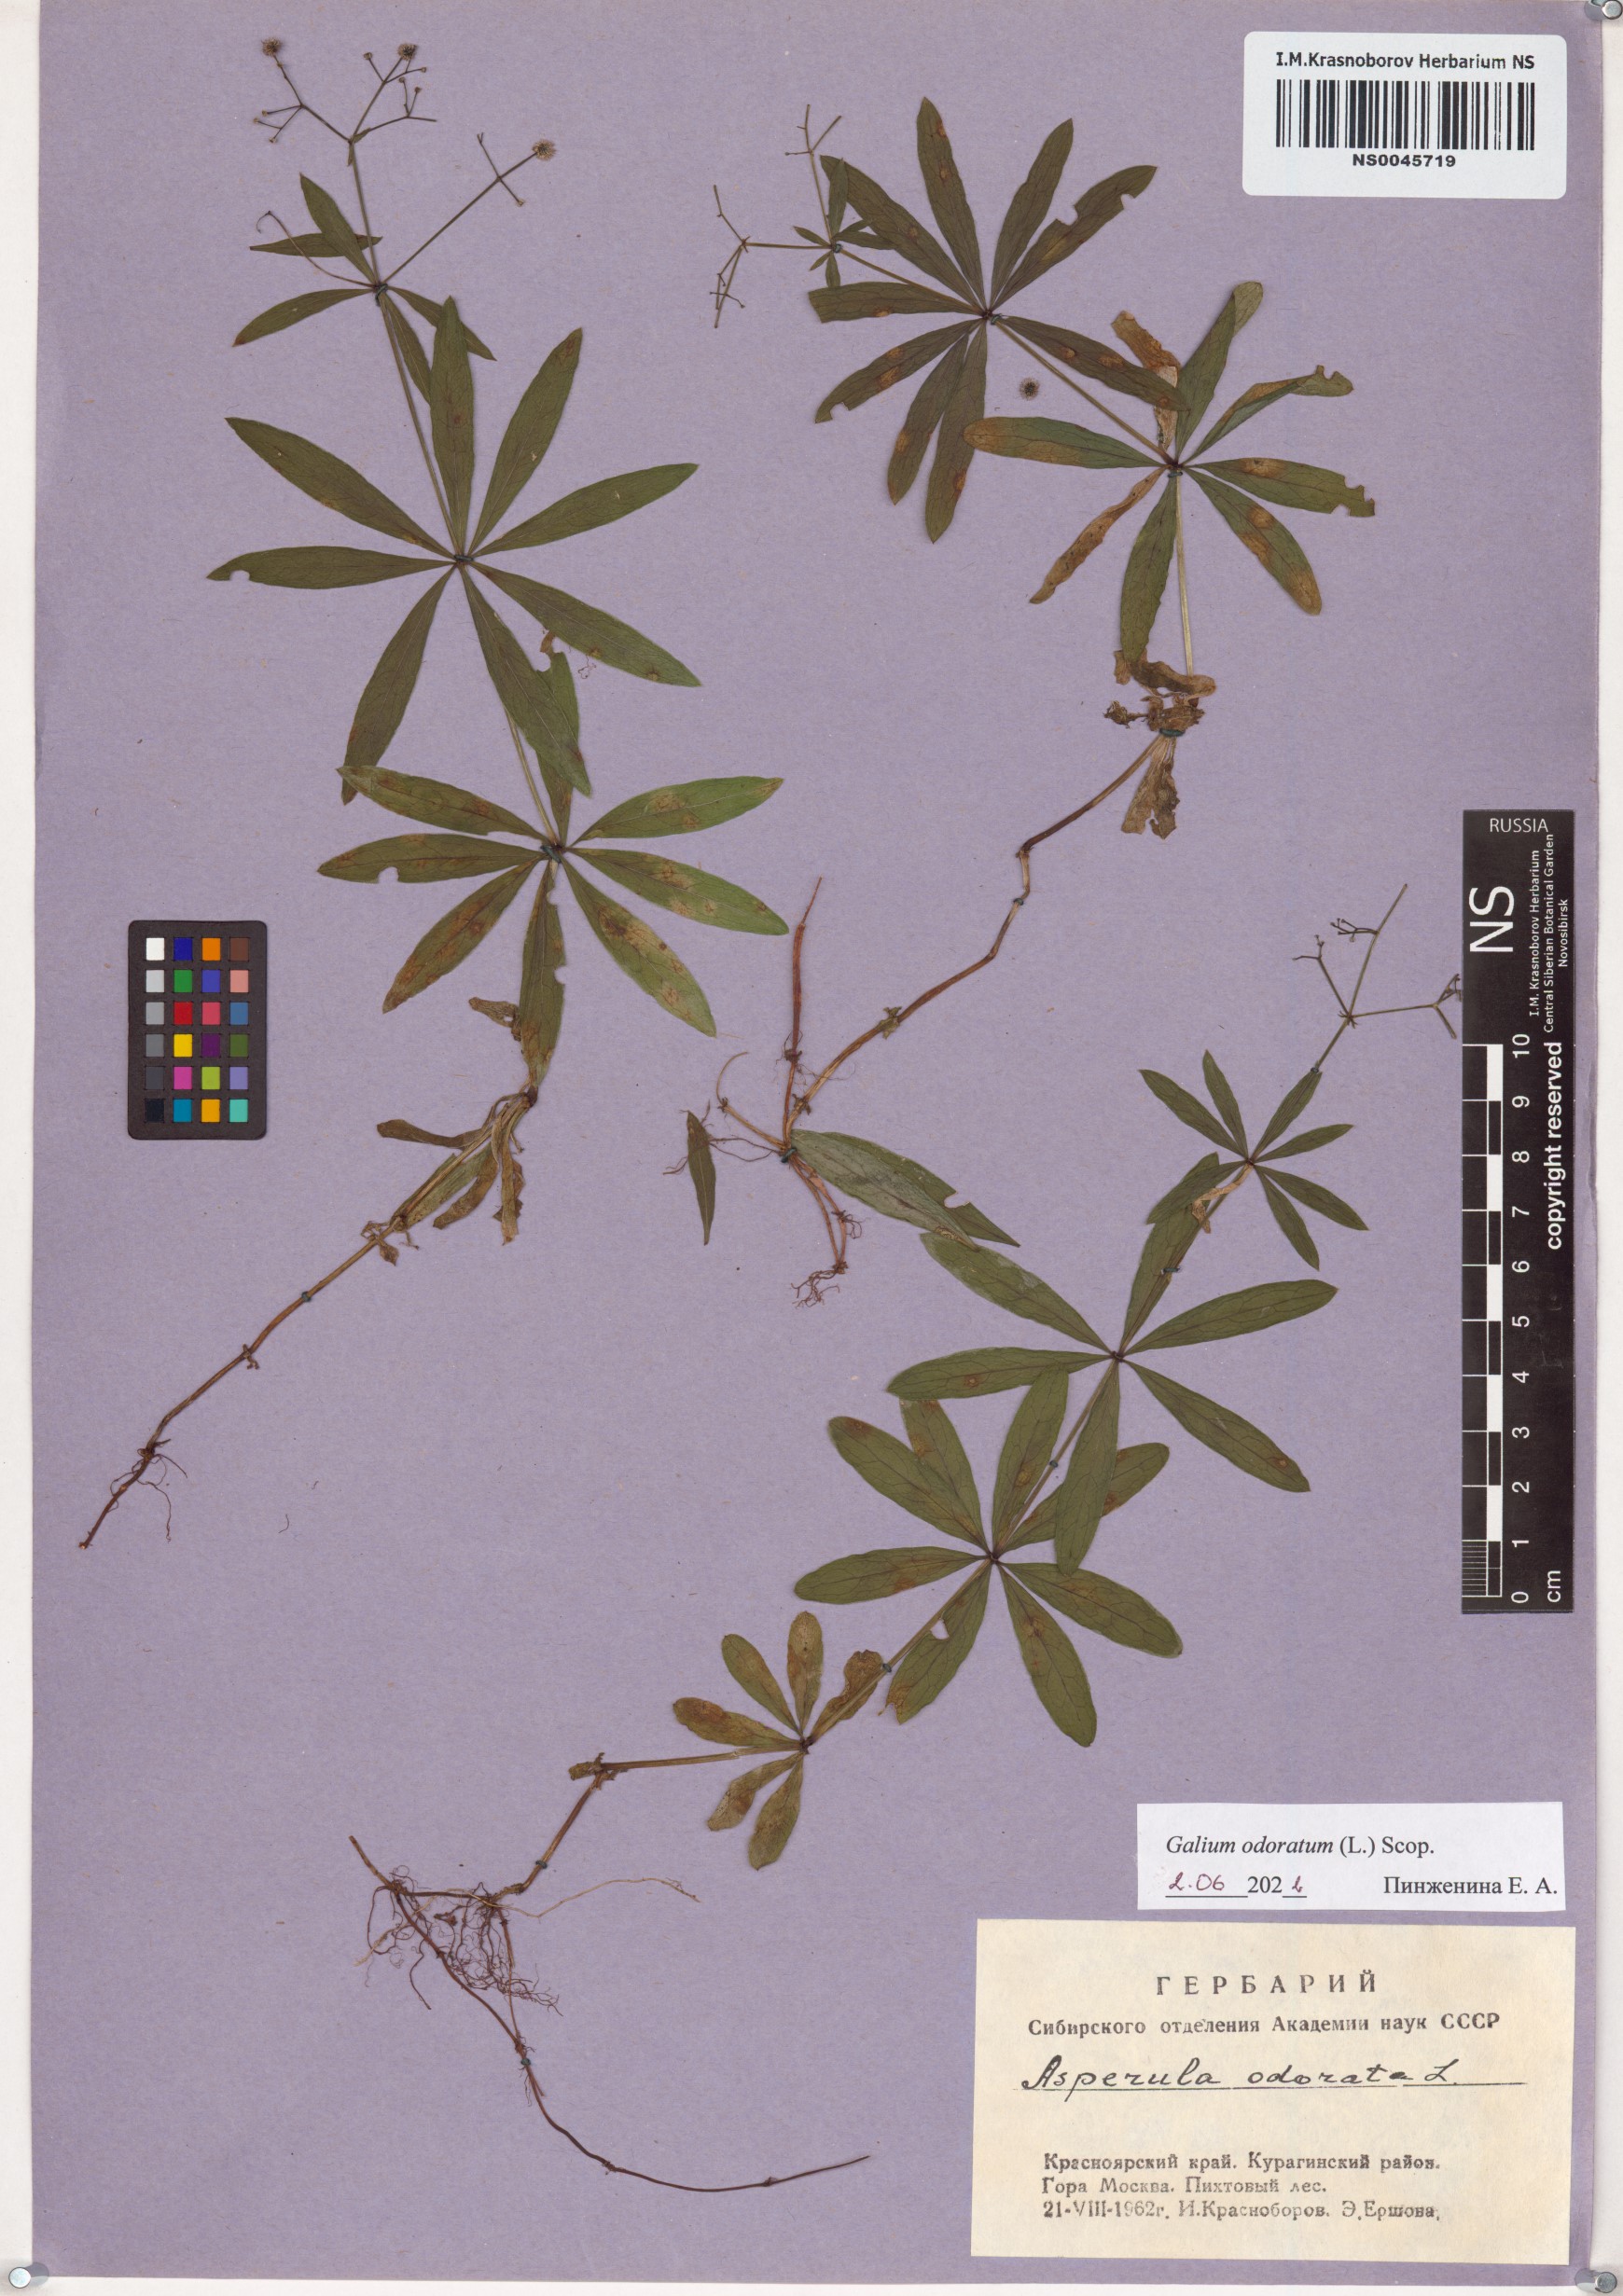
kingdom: Plantae
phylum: Tracheophyta
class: Magnoliopsida
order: Gentianales
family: Rubiaceae
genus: Galium
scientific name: Galium odoratum
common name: Sweet woodruff
